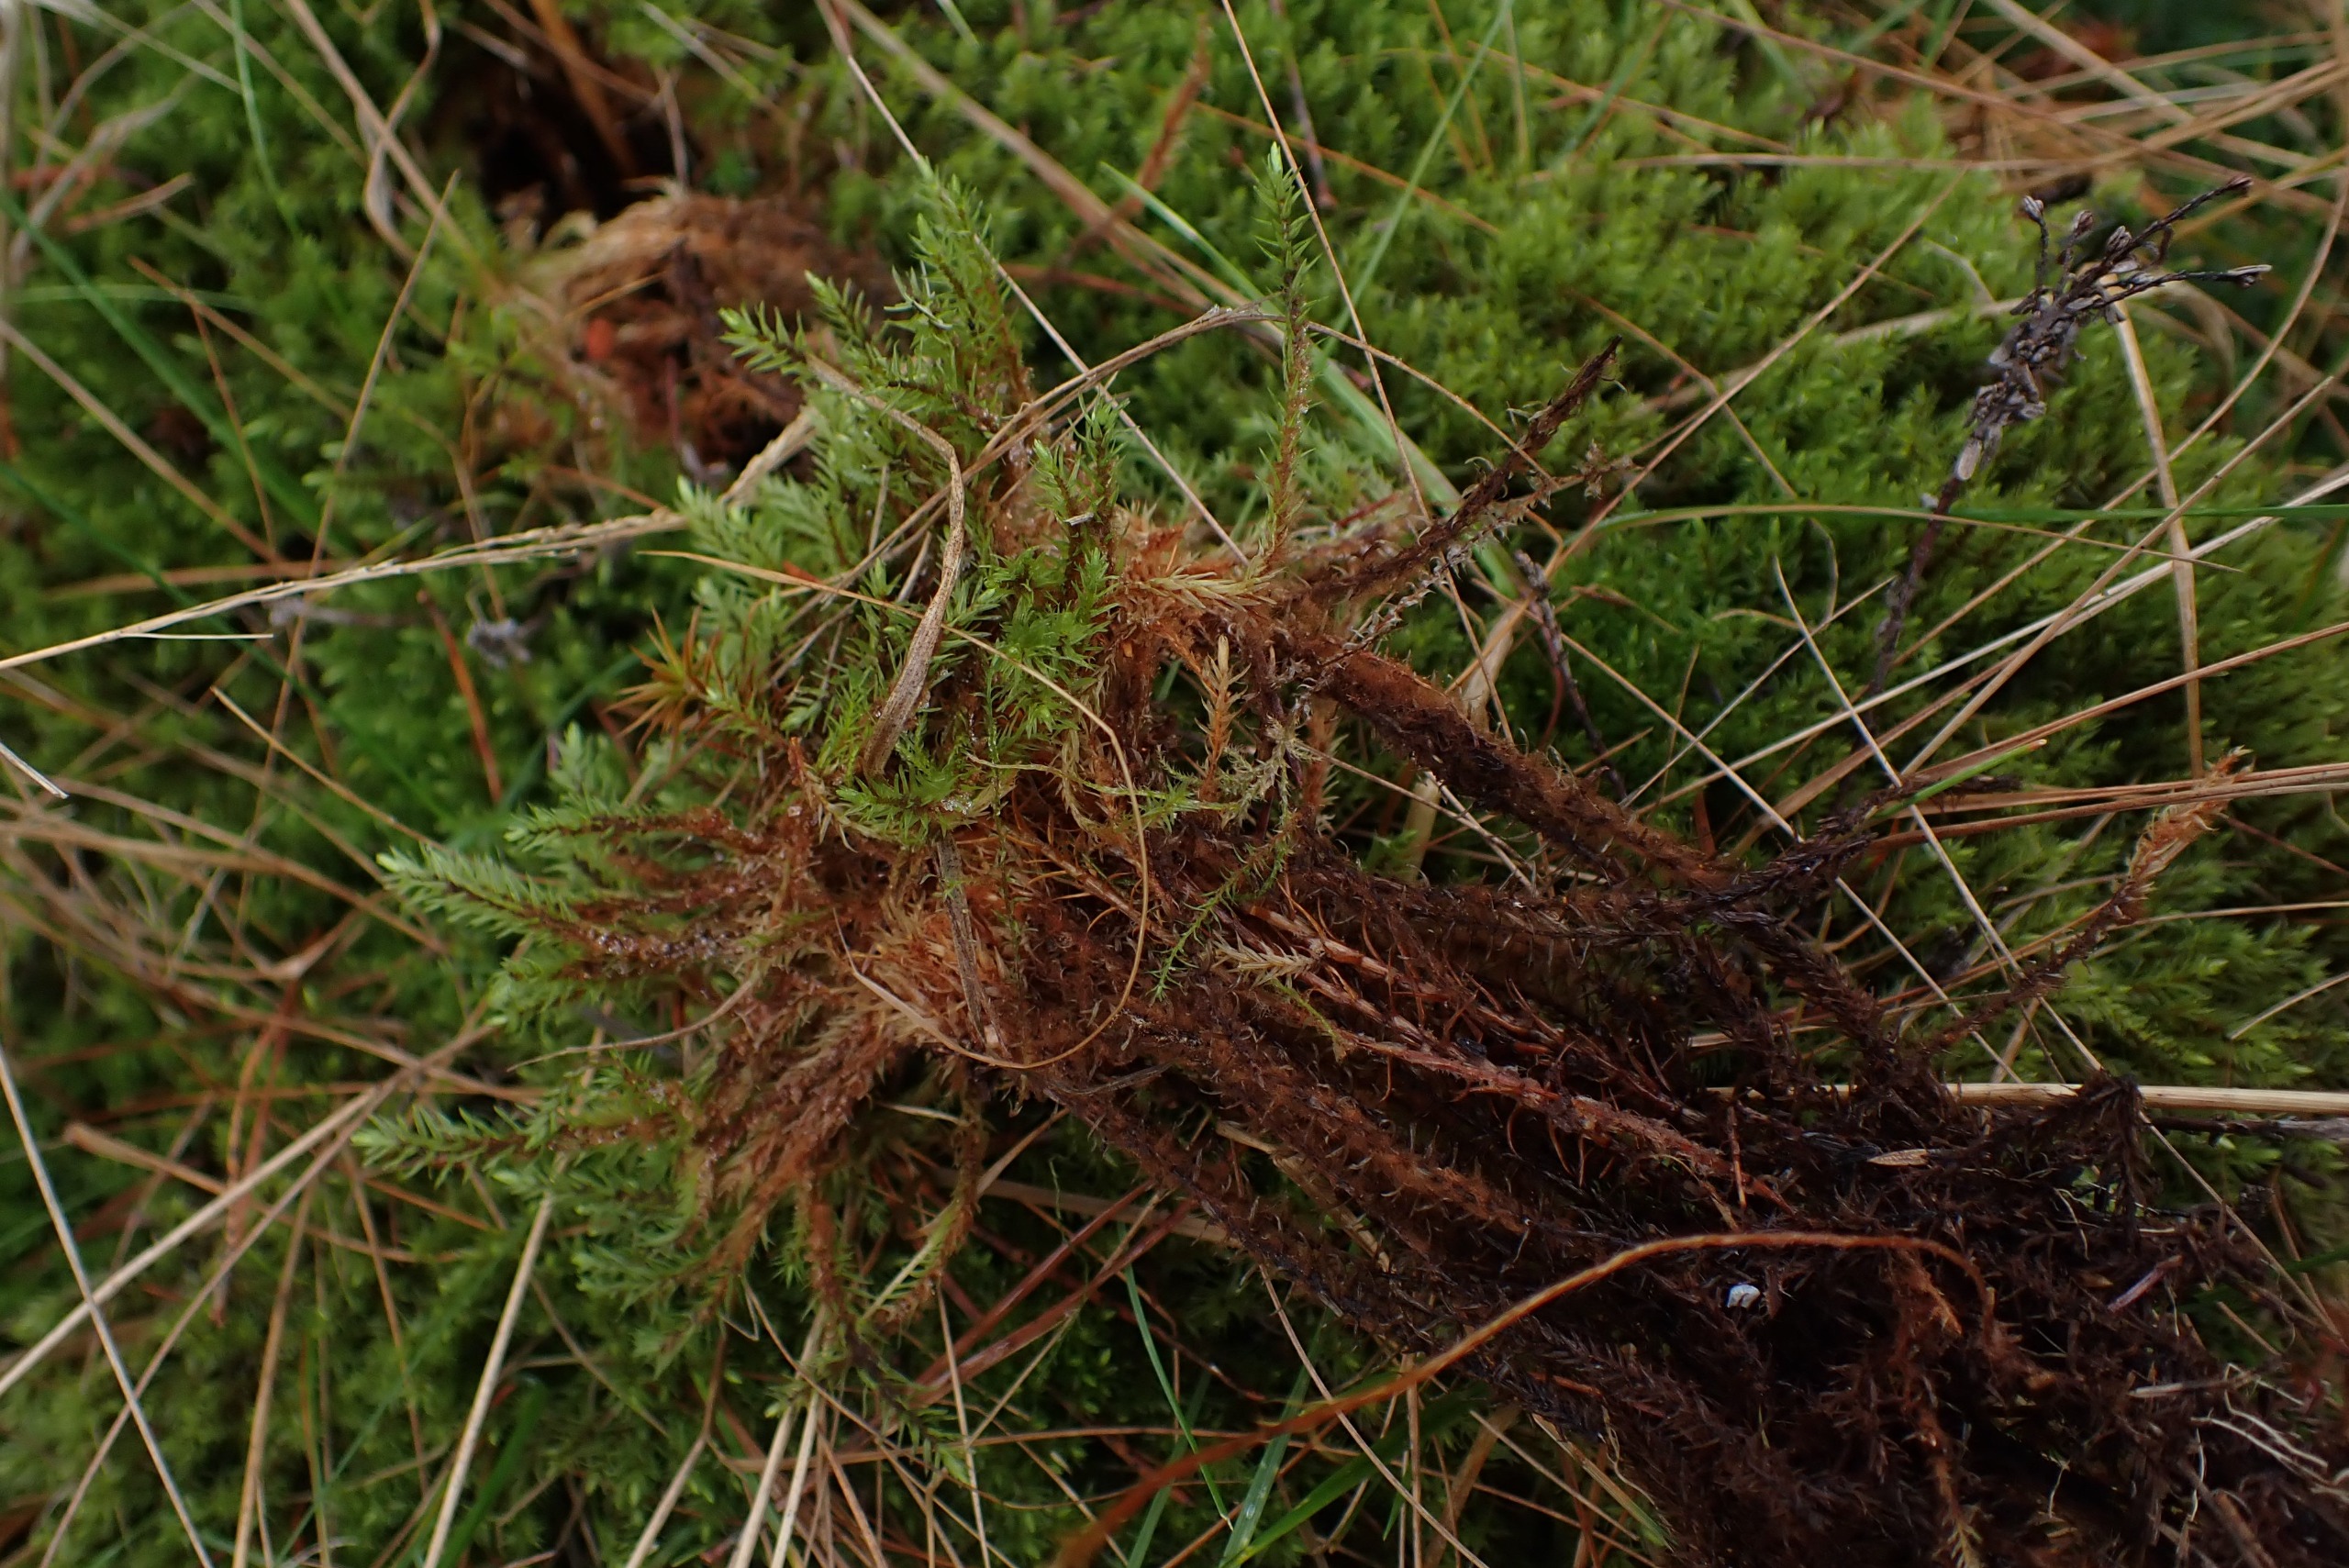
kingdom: Plantae
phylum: Bryophyta
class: Bryopsida
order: Aulacomniales
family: Aulacomniaceae
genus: Aulacomnium
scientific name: Aulacomnium palustre
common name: Almindelig filtmos
